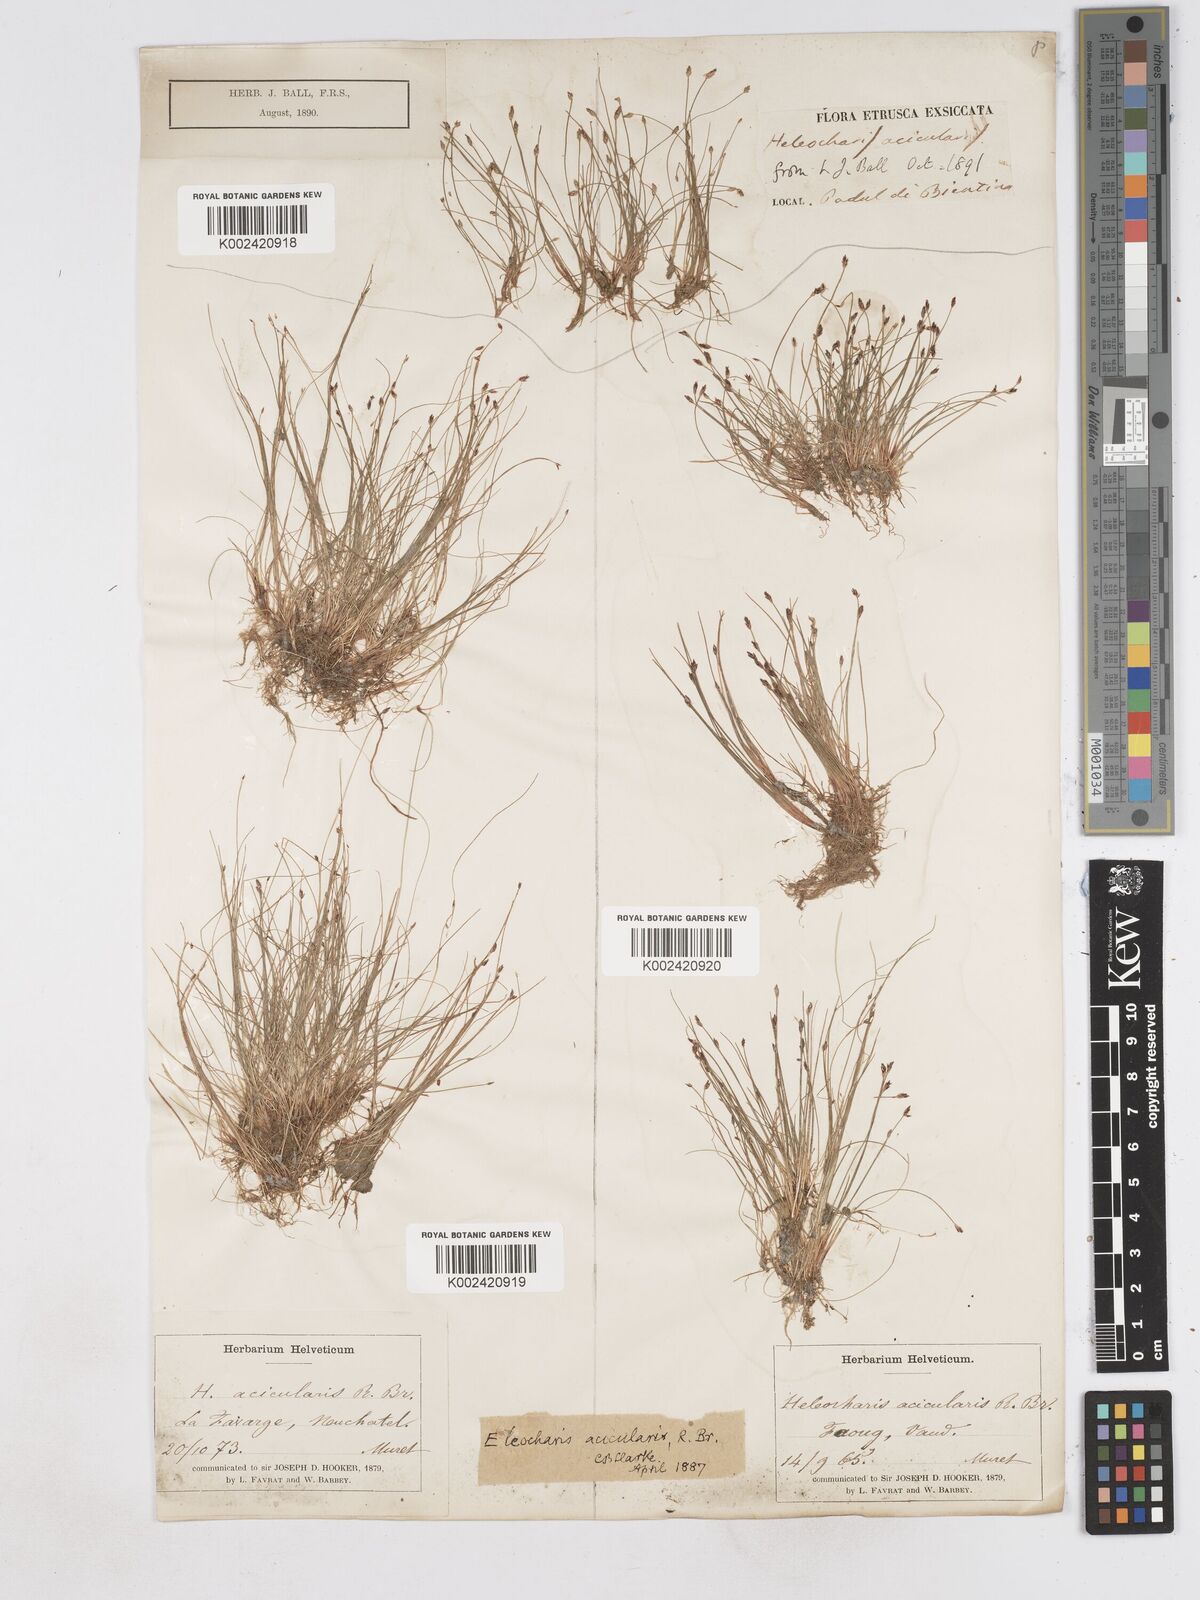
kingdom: Plantae
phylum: Tracheophyta
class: Liliopsida
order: Poales
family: Cyperaceae
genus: Eleocharis
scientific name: Eleocharis acicularis
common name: Needle spike-rush
